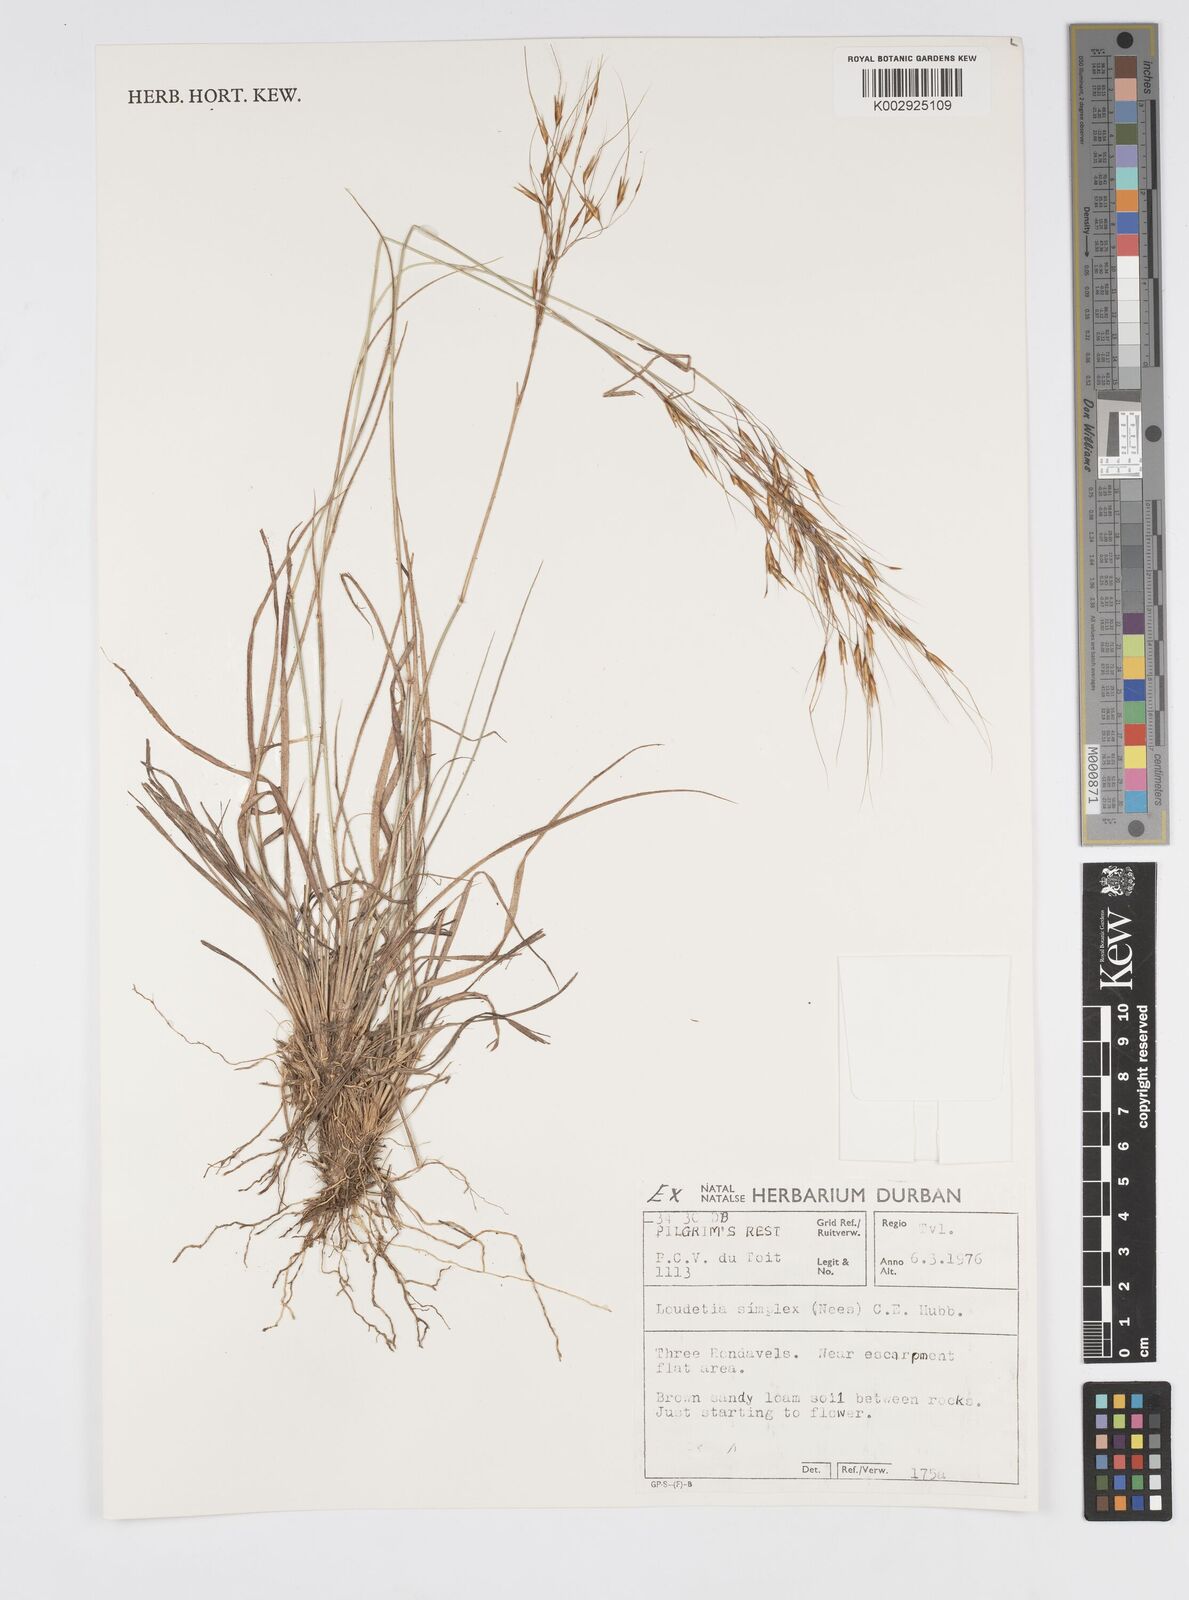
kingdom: Plantae
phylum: Tracheophyta
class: Liliopsida
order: Poales
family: Poaceae
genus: Loudetia
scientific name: Loudetia simplex
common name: Common russet grass
